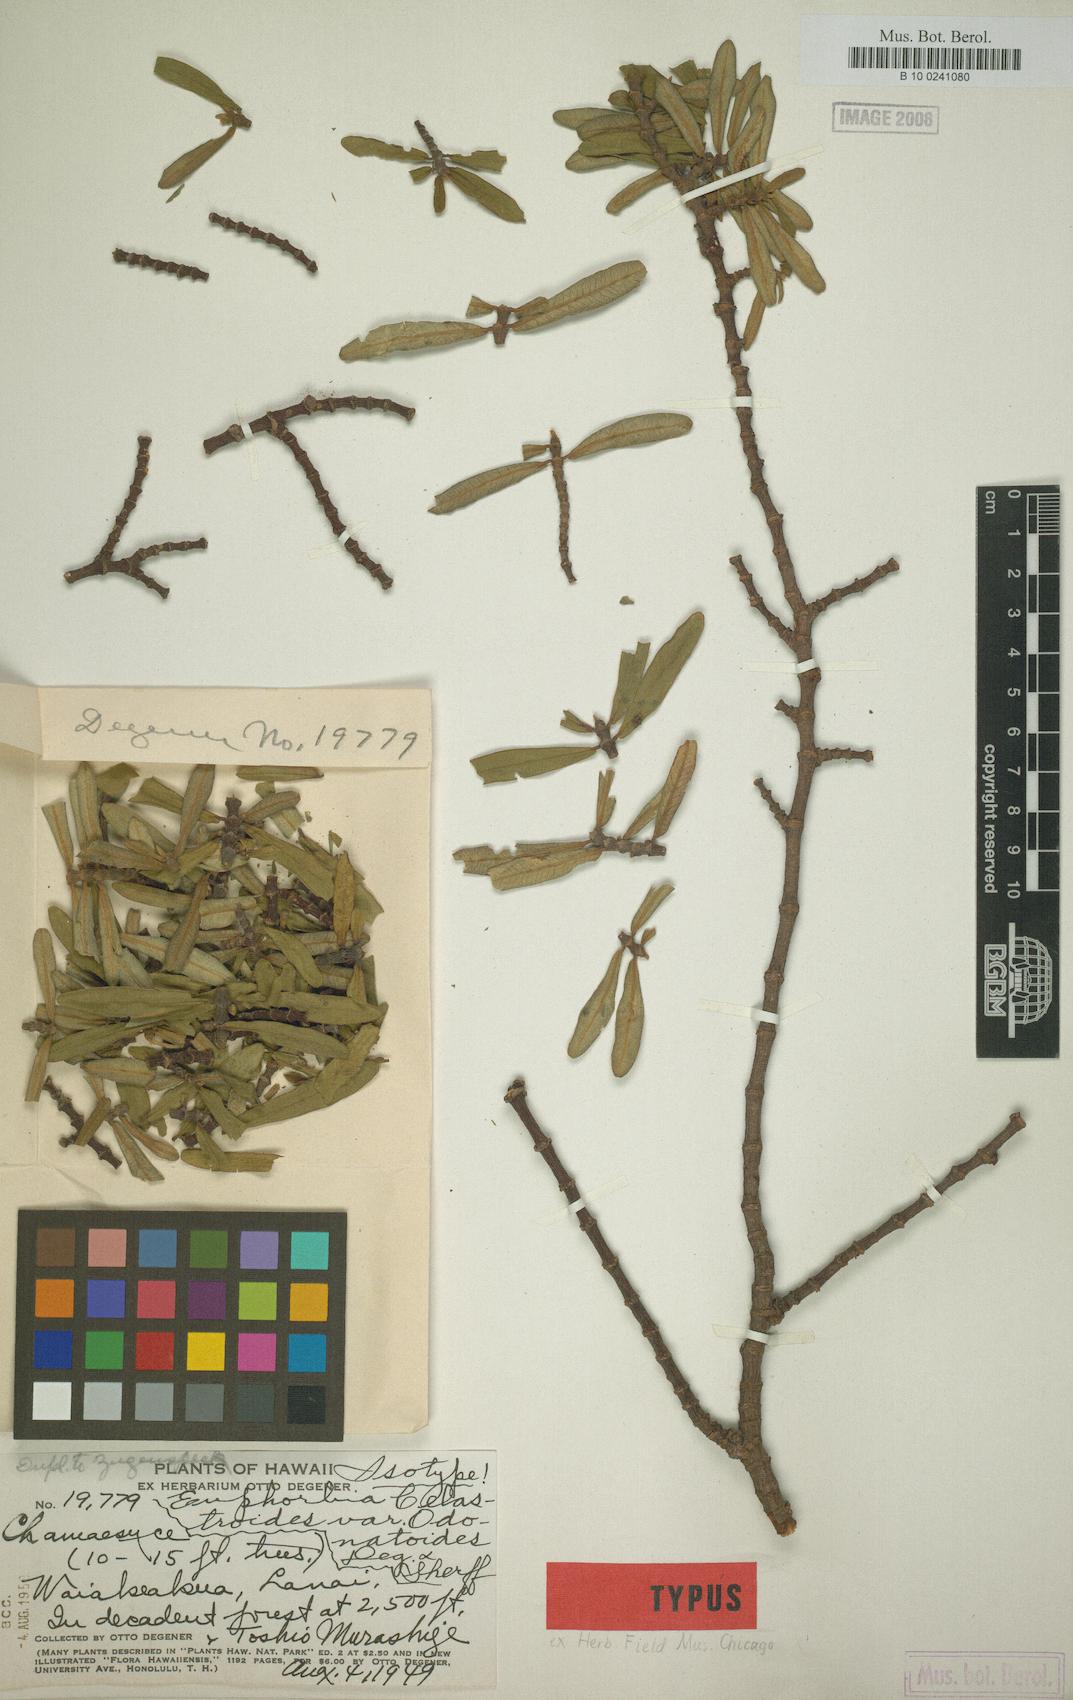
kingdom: Plantae
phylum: Tracheophyta
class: Magnoliopsida
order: Malpighiales
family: Euphorbiaceae
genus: Euphorbia
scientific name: Euphorbia celastroides
